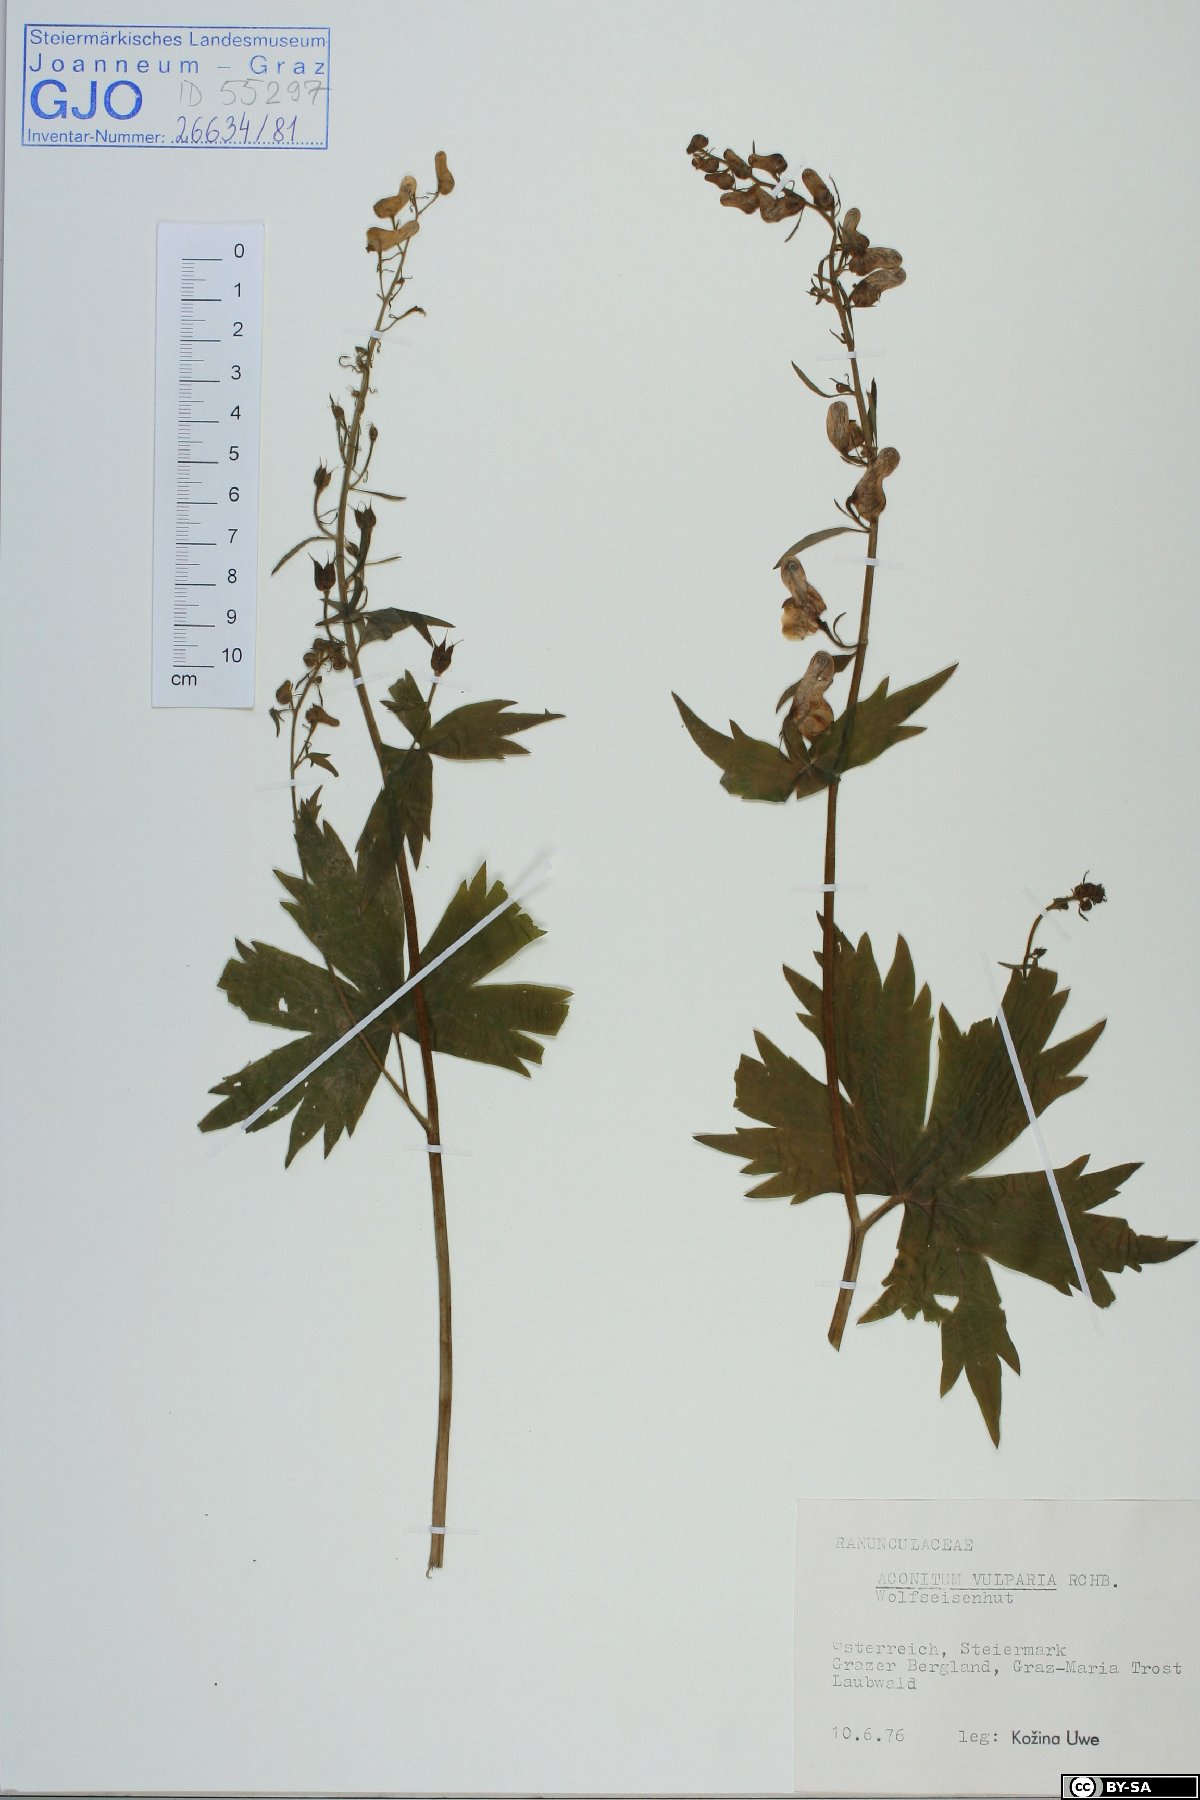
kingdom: Plantae
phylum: Tracheophyta
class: Magnoliopsida
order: Ranunculales
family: Ranunculaceae
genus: Aconitum
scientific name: Aconitum lycoctonum
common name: Wolf's-bane
